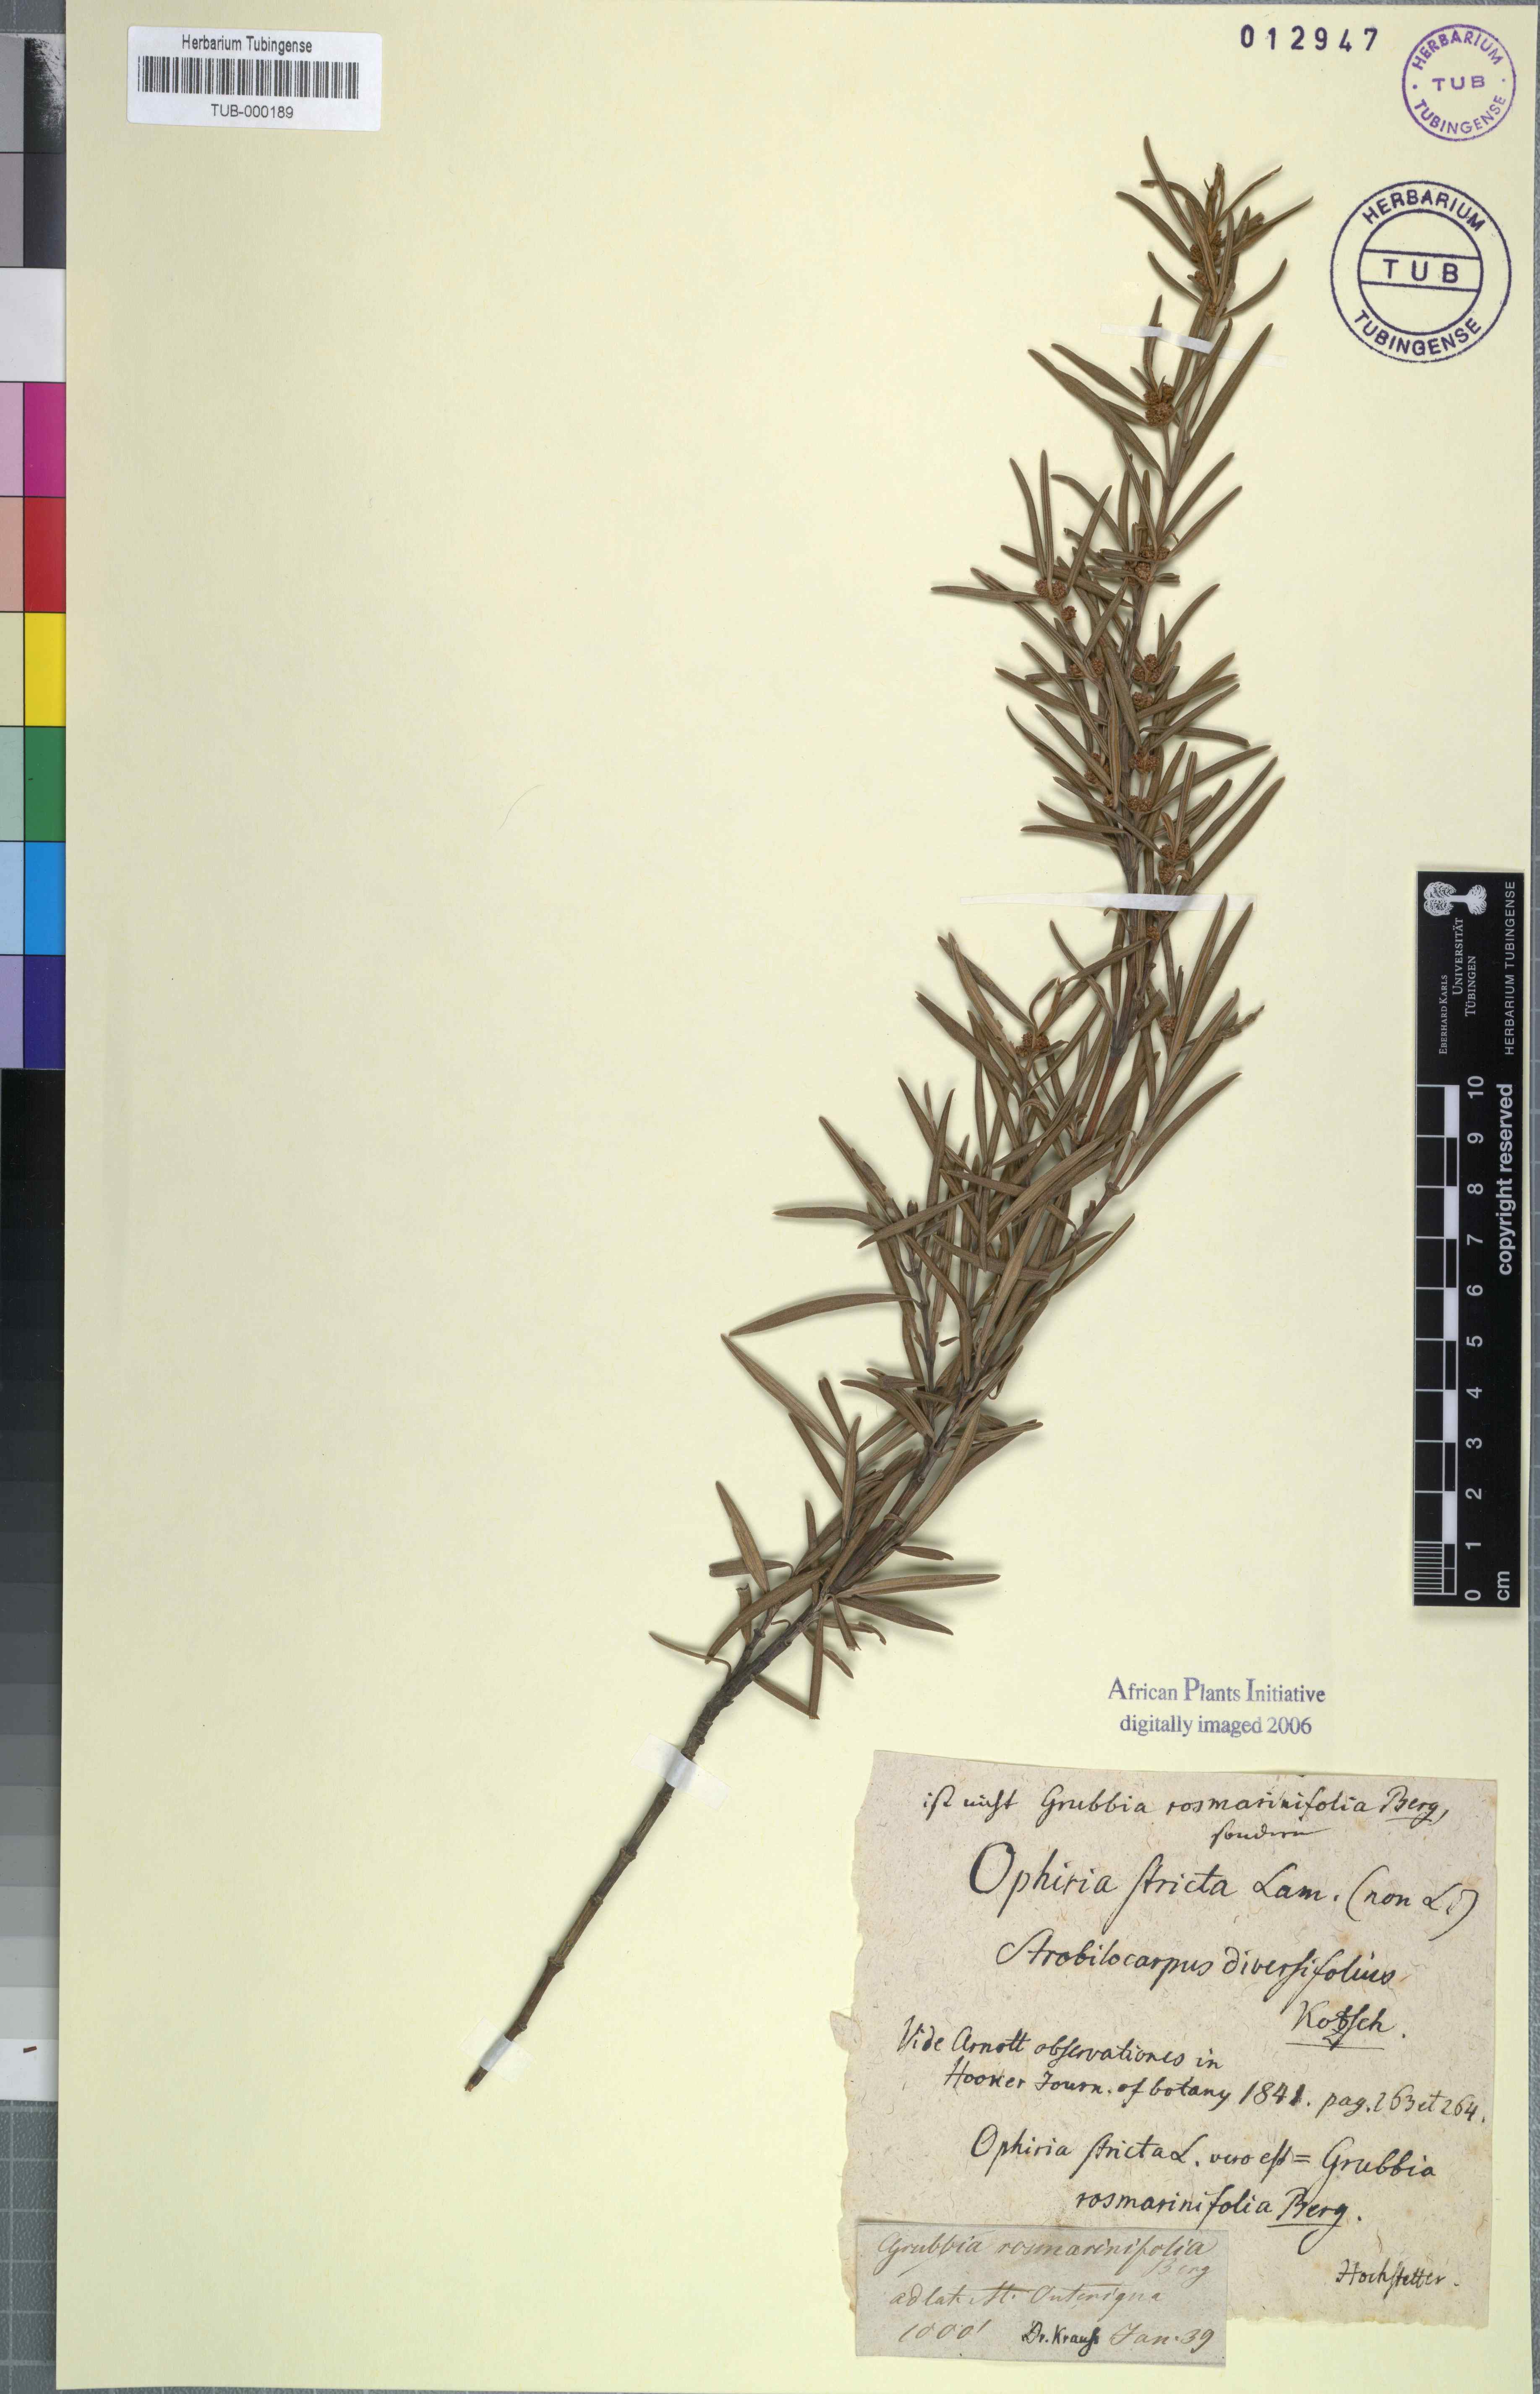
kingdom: Plantae
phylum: Tracheophyta
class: Magnoliopsida
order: Cornales
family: Grubbiaceae
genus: Grubbia
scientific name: Grubbia rosmarinifolia
